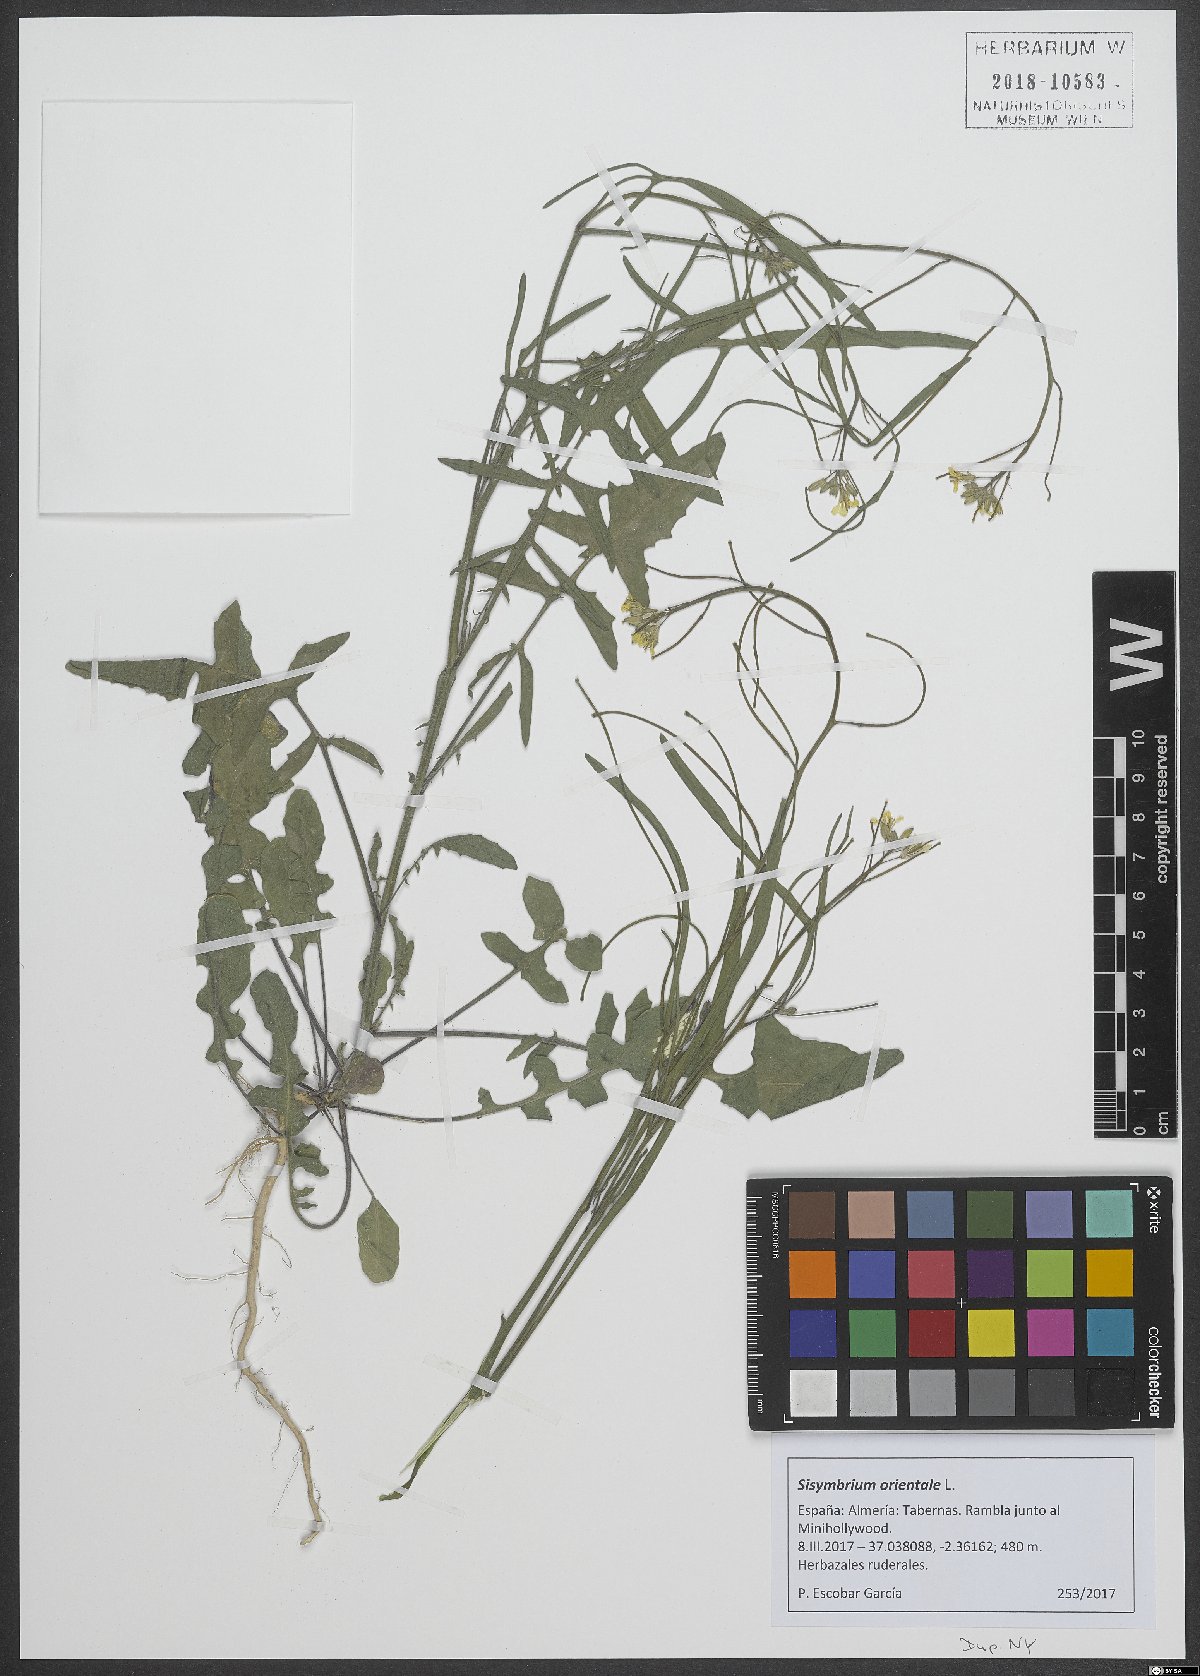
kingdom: Plantae
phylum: Tracheophyta
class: Magnoliopsida
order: Brassicales
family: Brassicaceae
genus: Sisymbrium
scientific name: Sisymbrium orientale
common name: Eastern rocket
